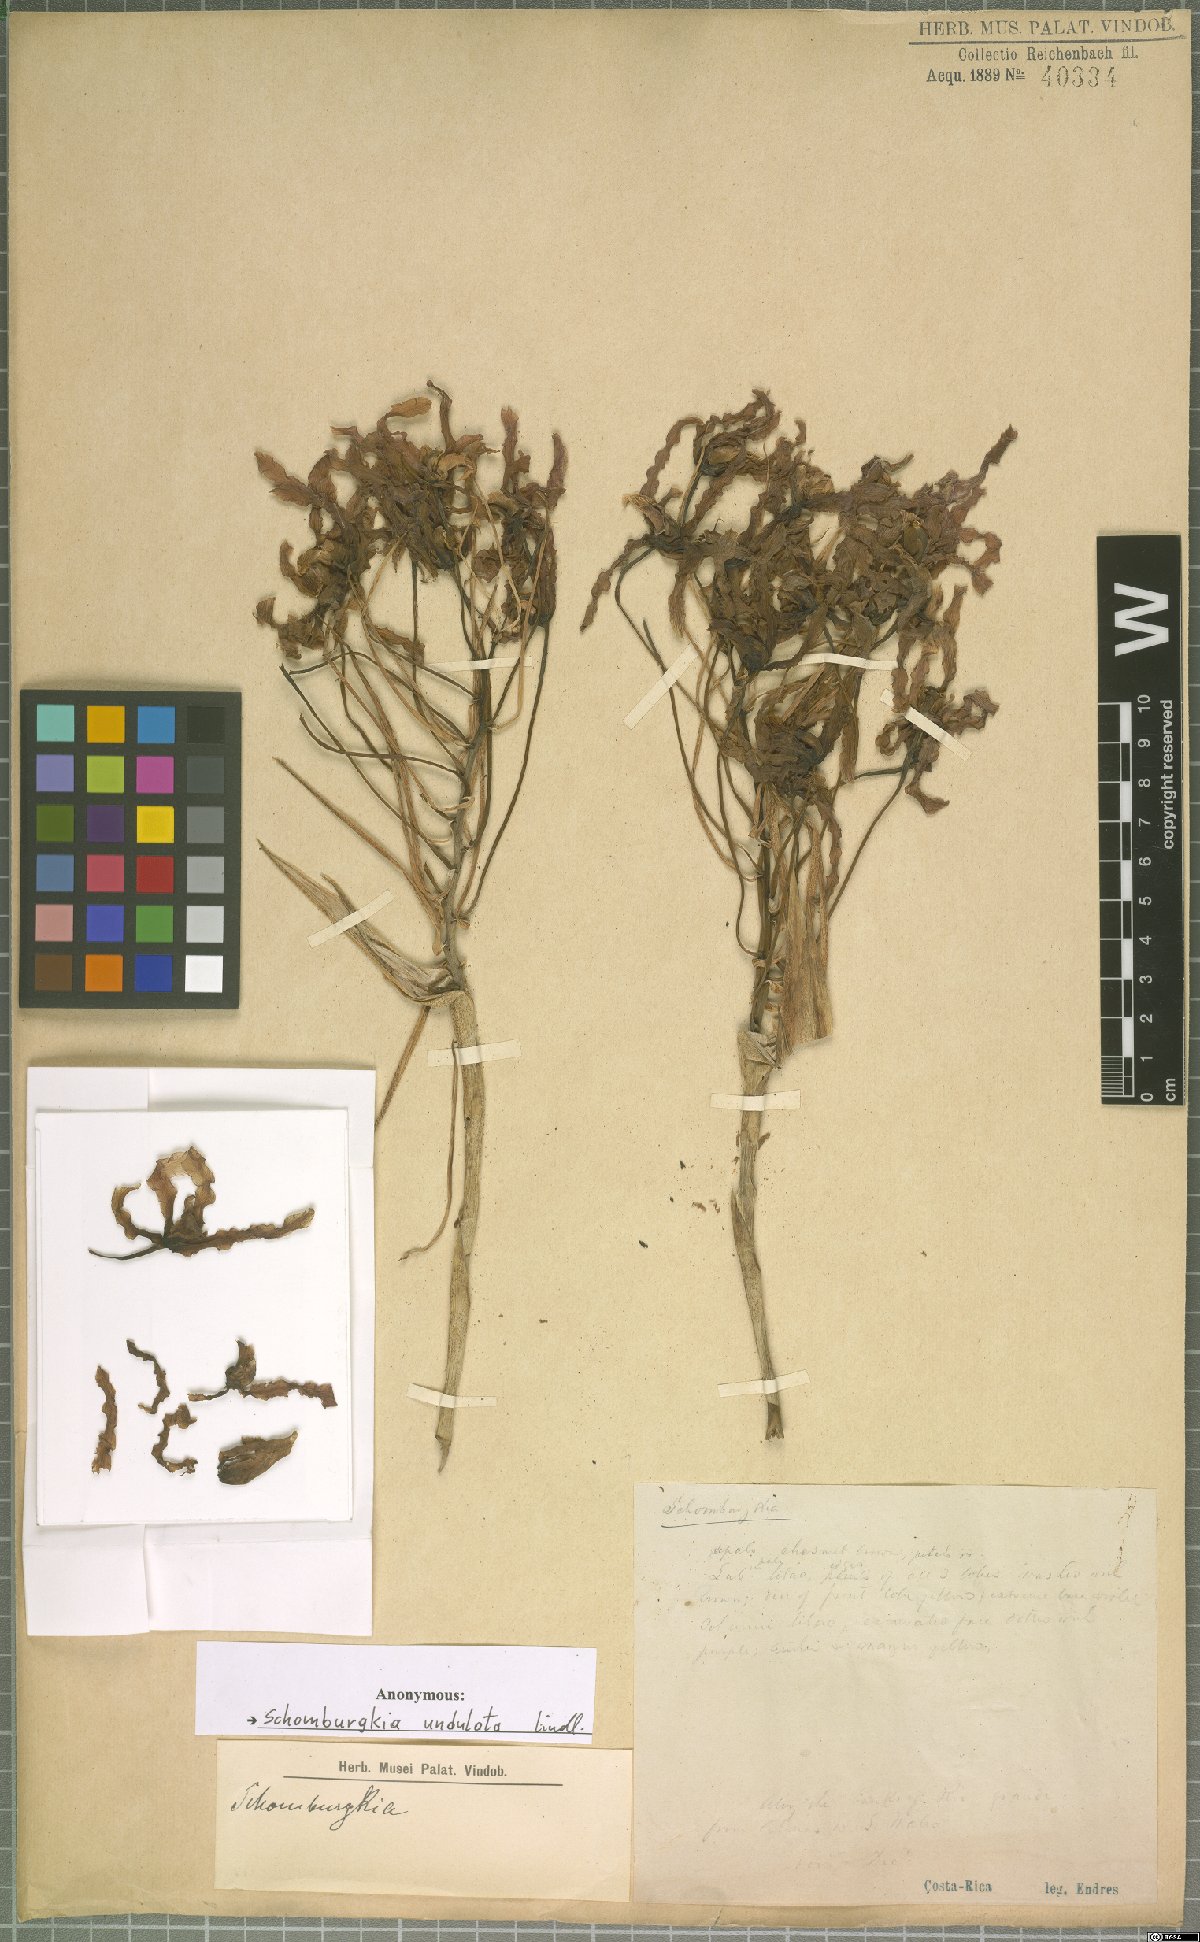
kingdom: Plantae
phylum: Tracheophyta
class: Liliopsida
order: Asparagales
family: Orchidaceae
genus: Laelia
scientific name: Laelia undulata
